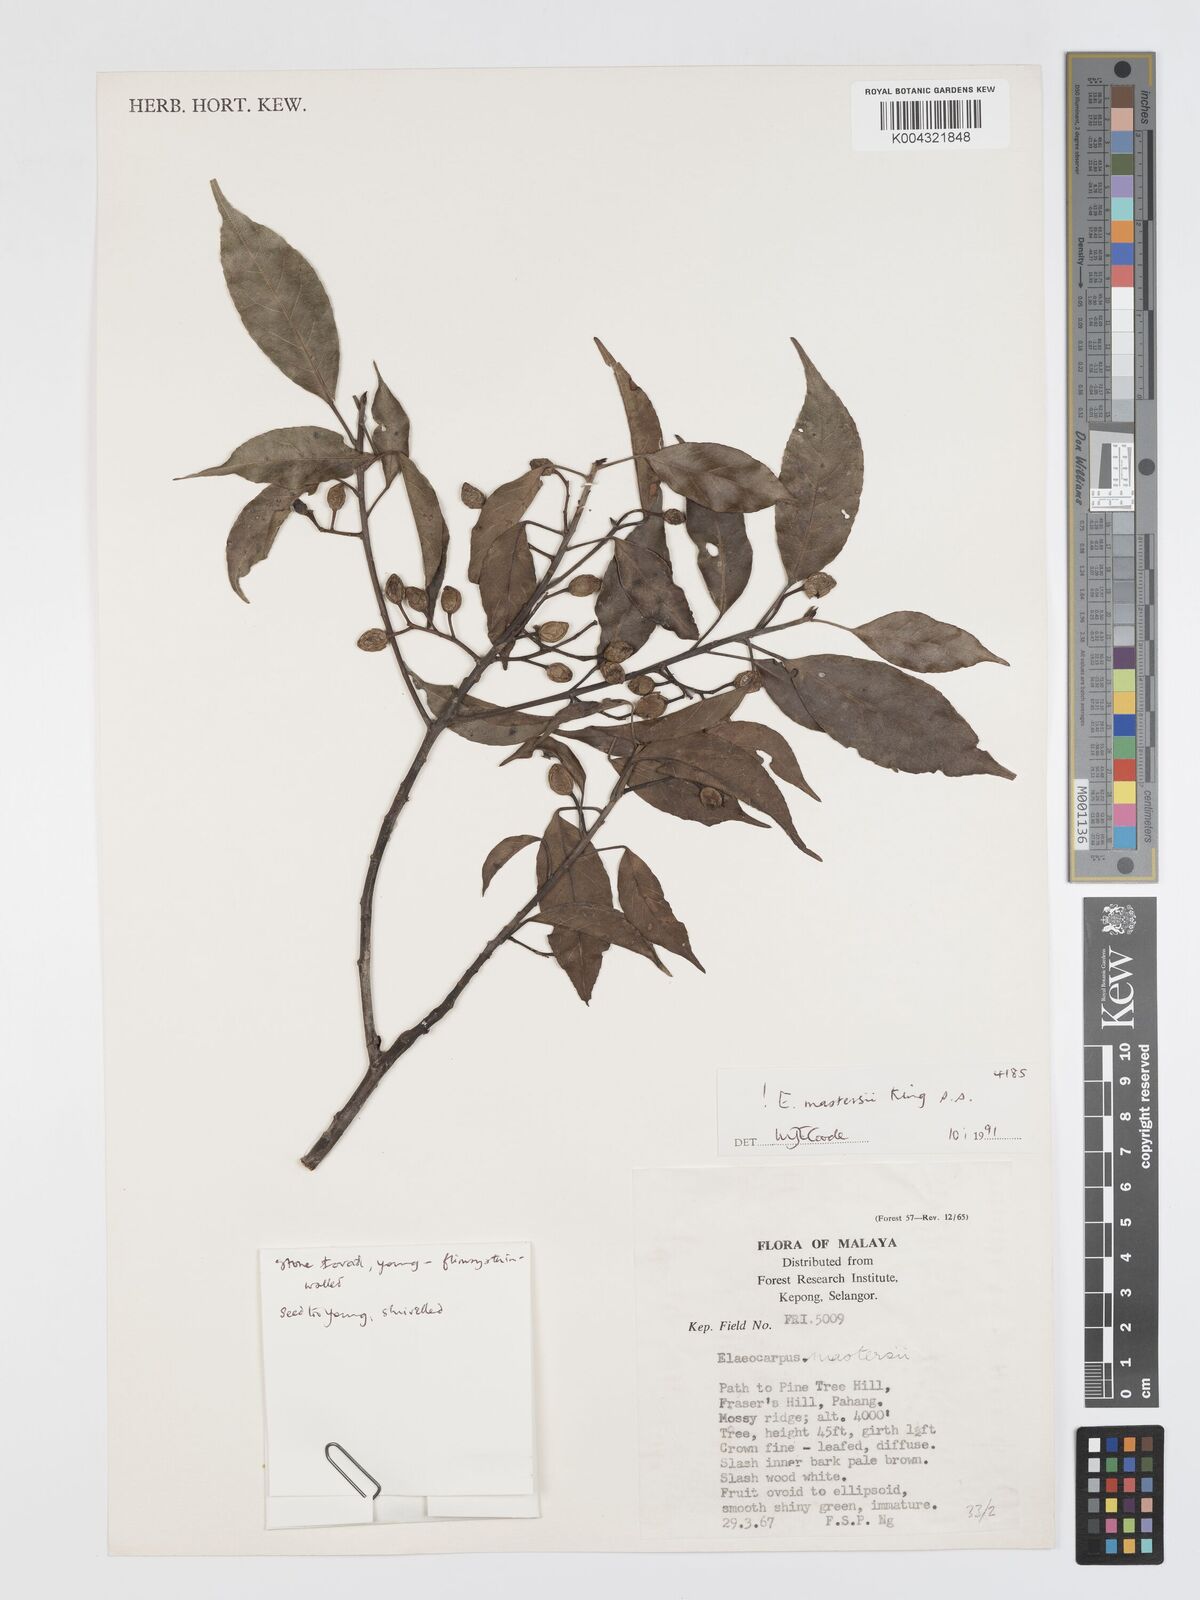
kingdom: Plantae
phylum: Tracheophyta
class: Magnoliopsida
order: Oxalidales
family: Elaeocarpaceae
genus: Elaeocarpus
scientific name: Elaeocarpus mastersii
